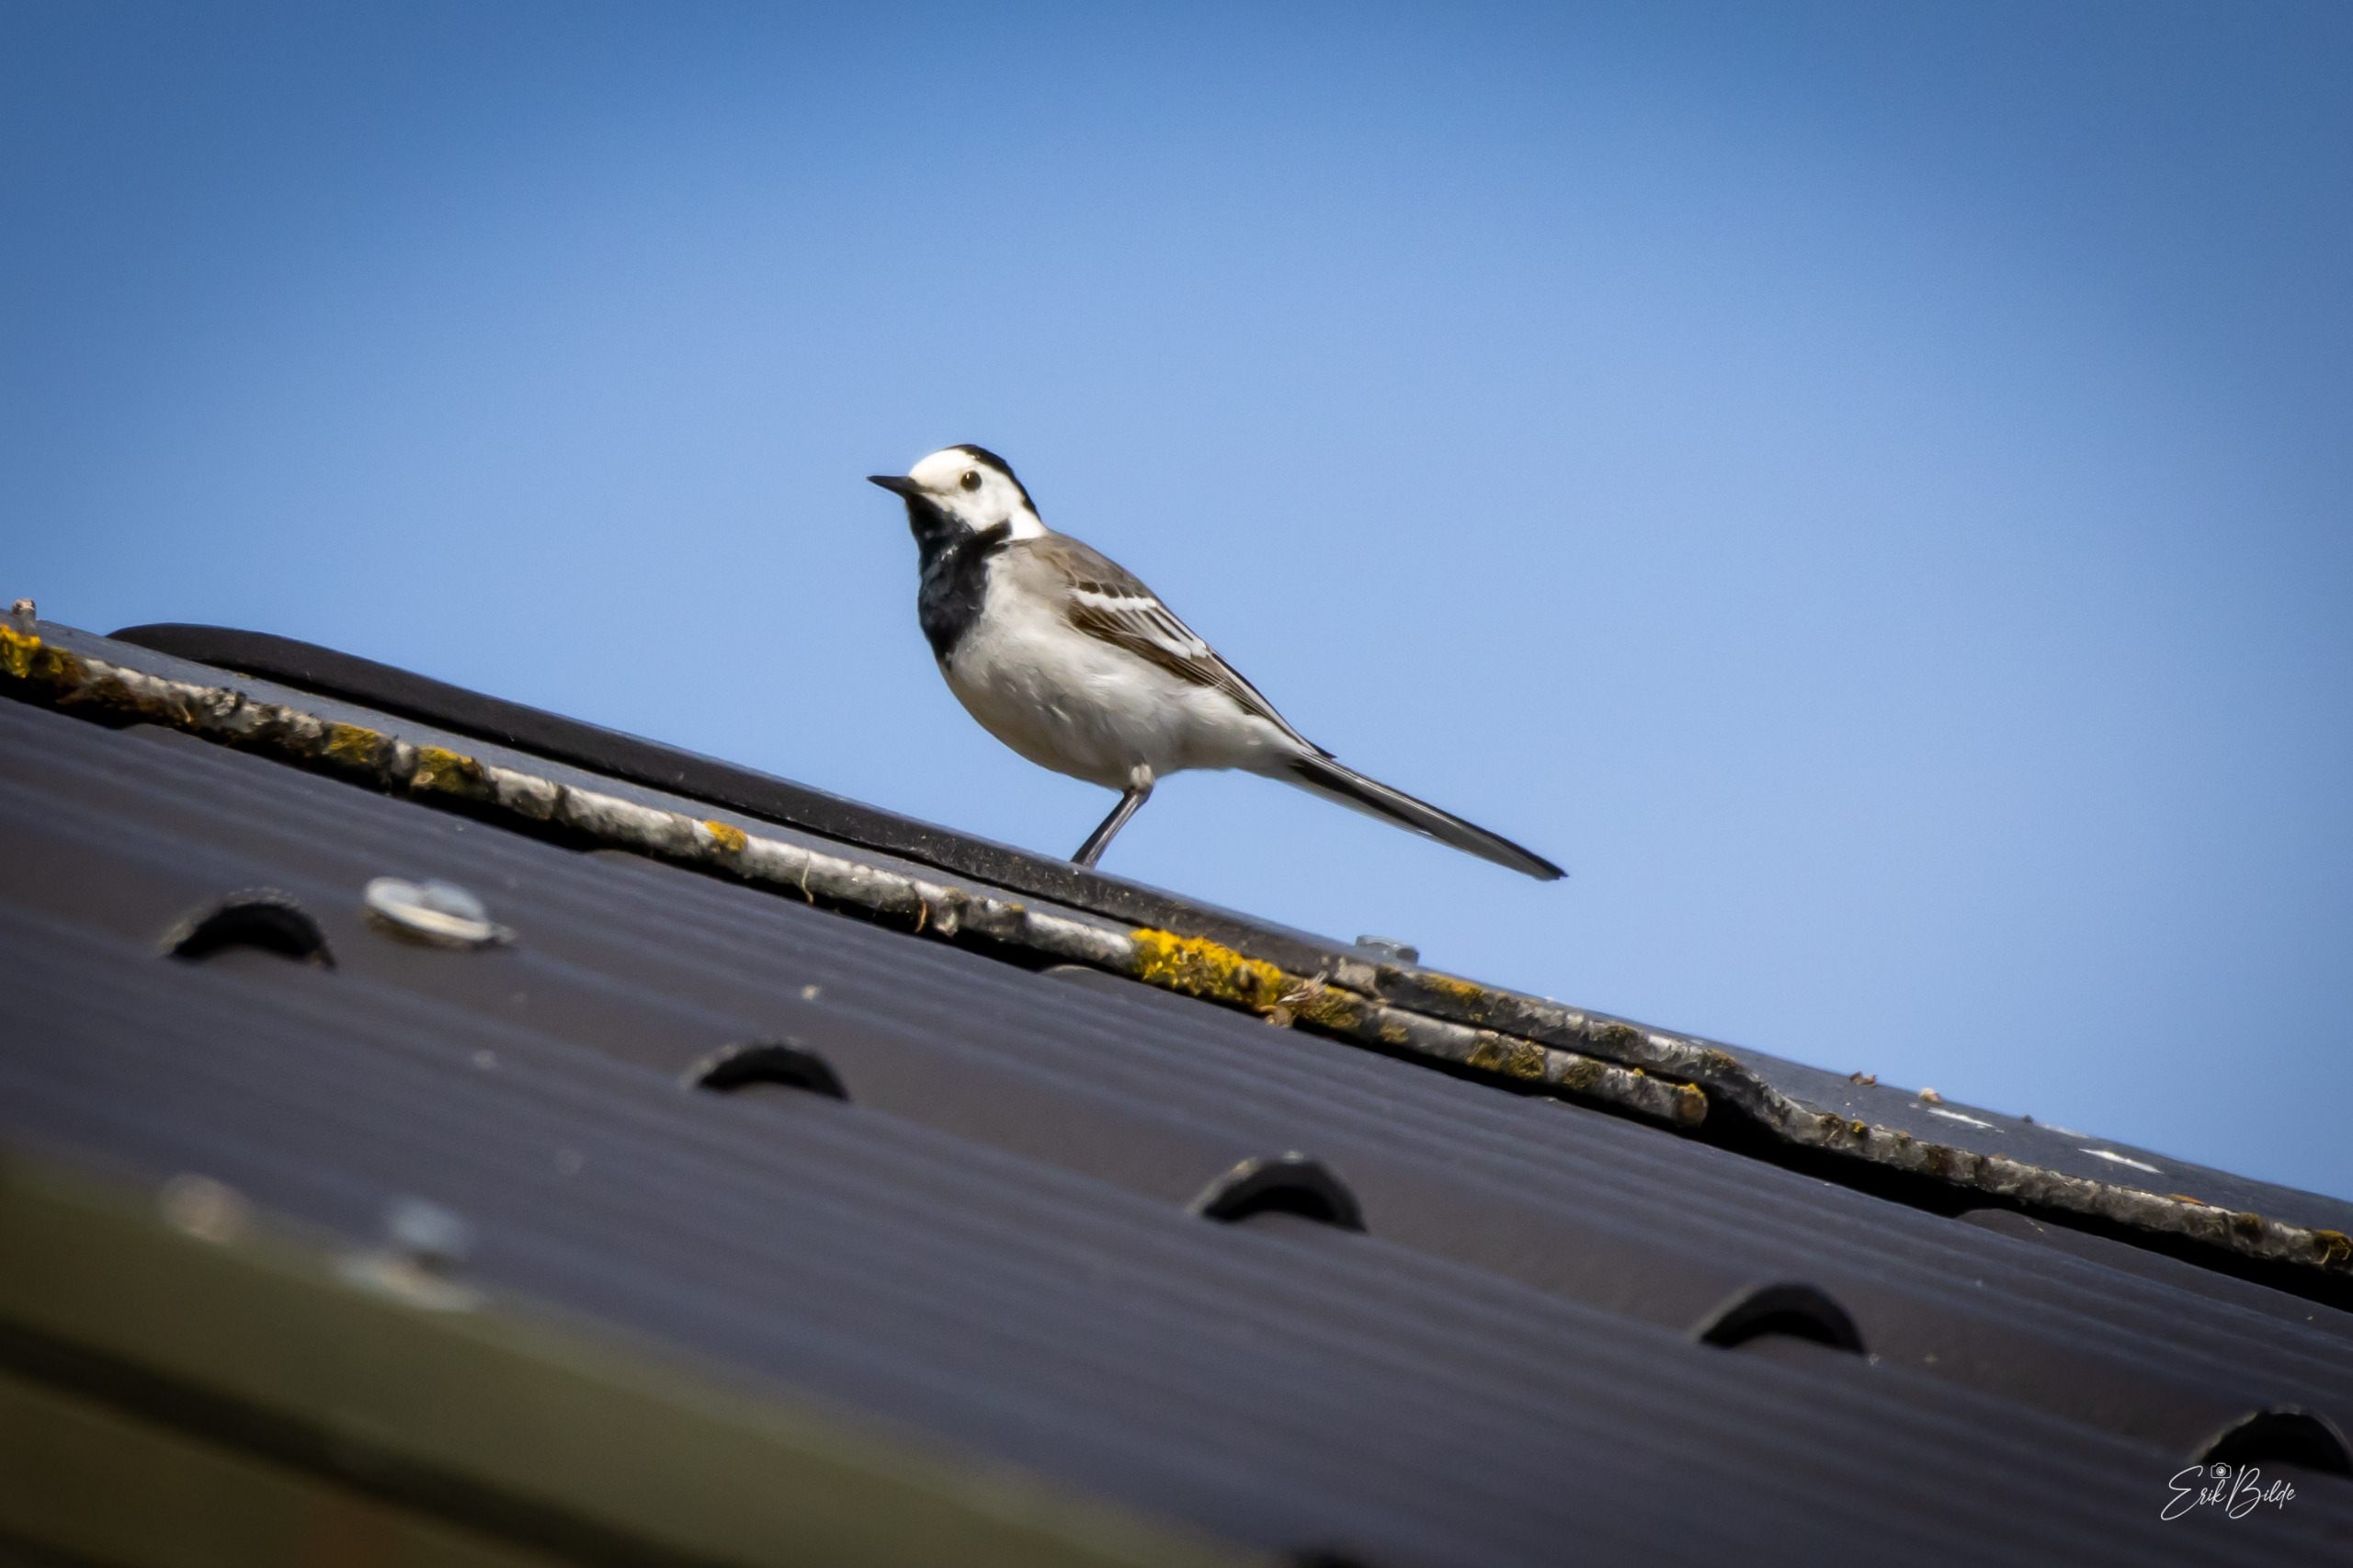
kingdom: Animalia
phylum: Chordata
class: Aves
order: Passeriformes
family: Motacillidae
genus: Motacilla
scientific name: Motacilla alba
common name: Hvid vipstjert
